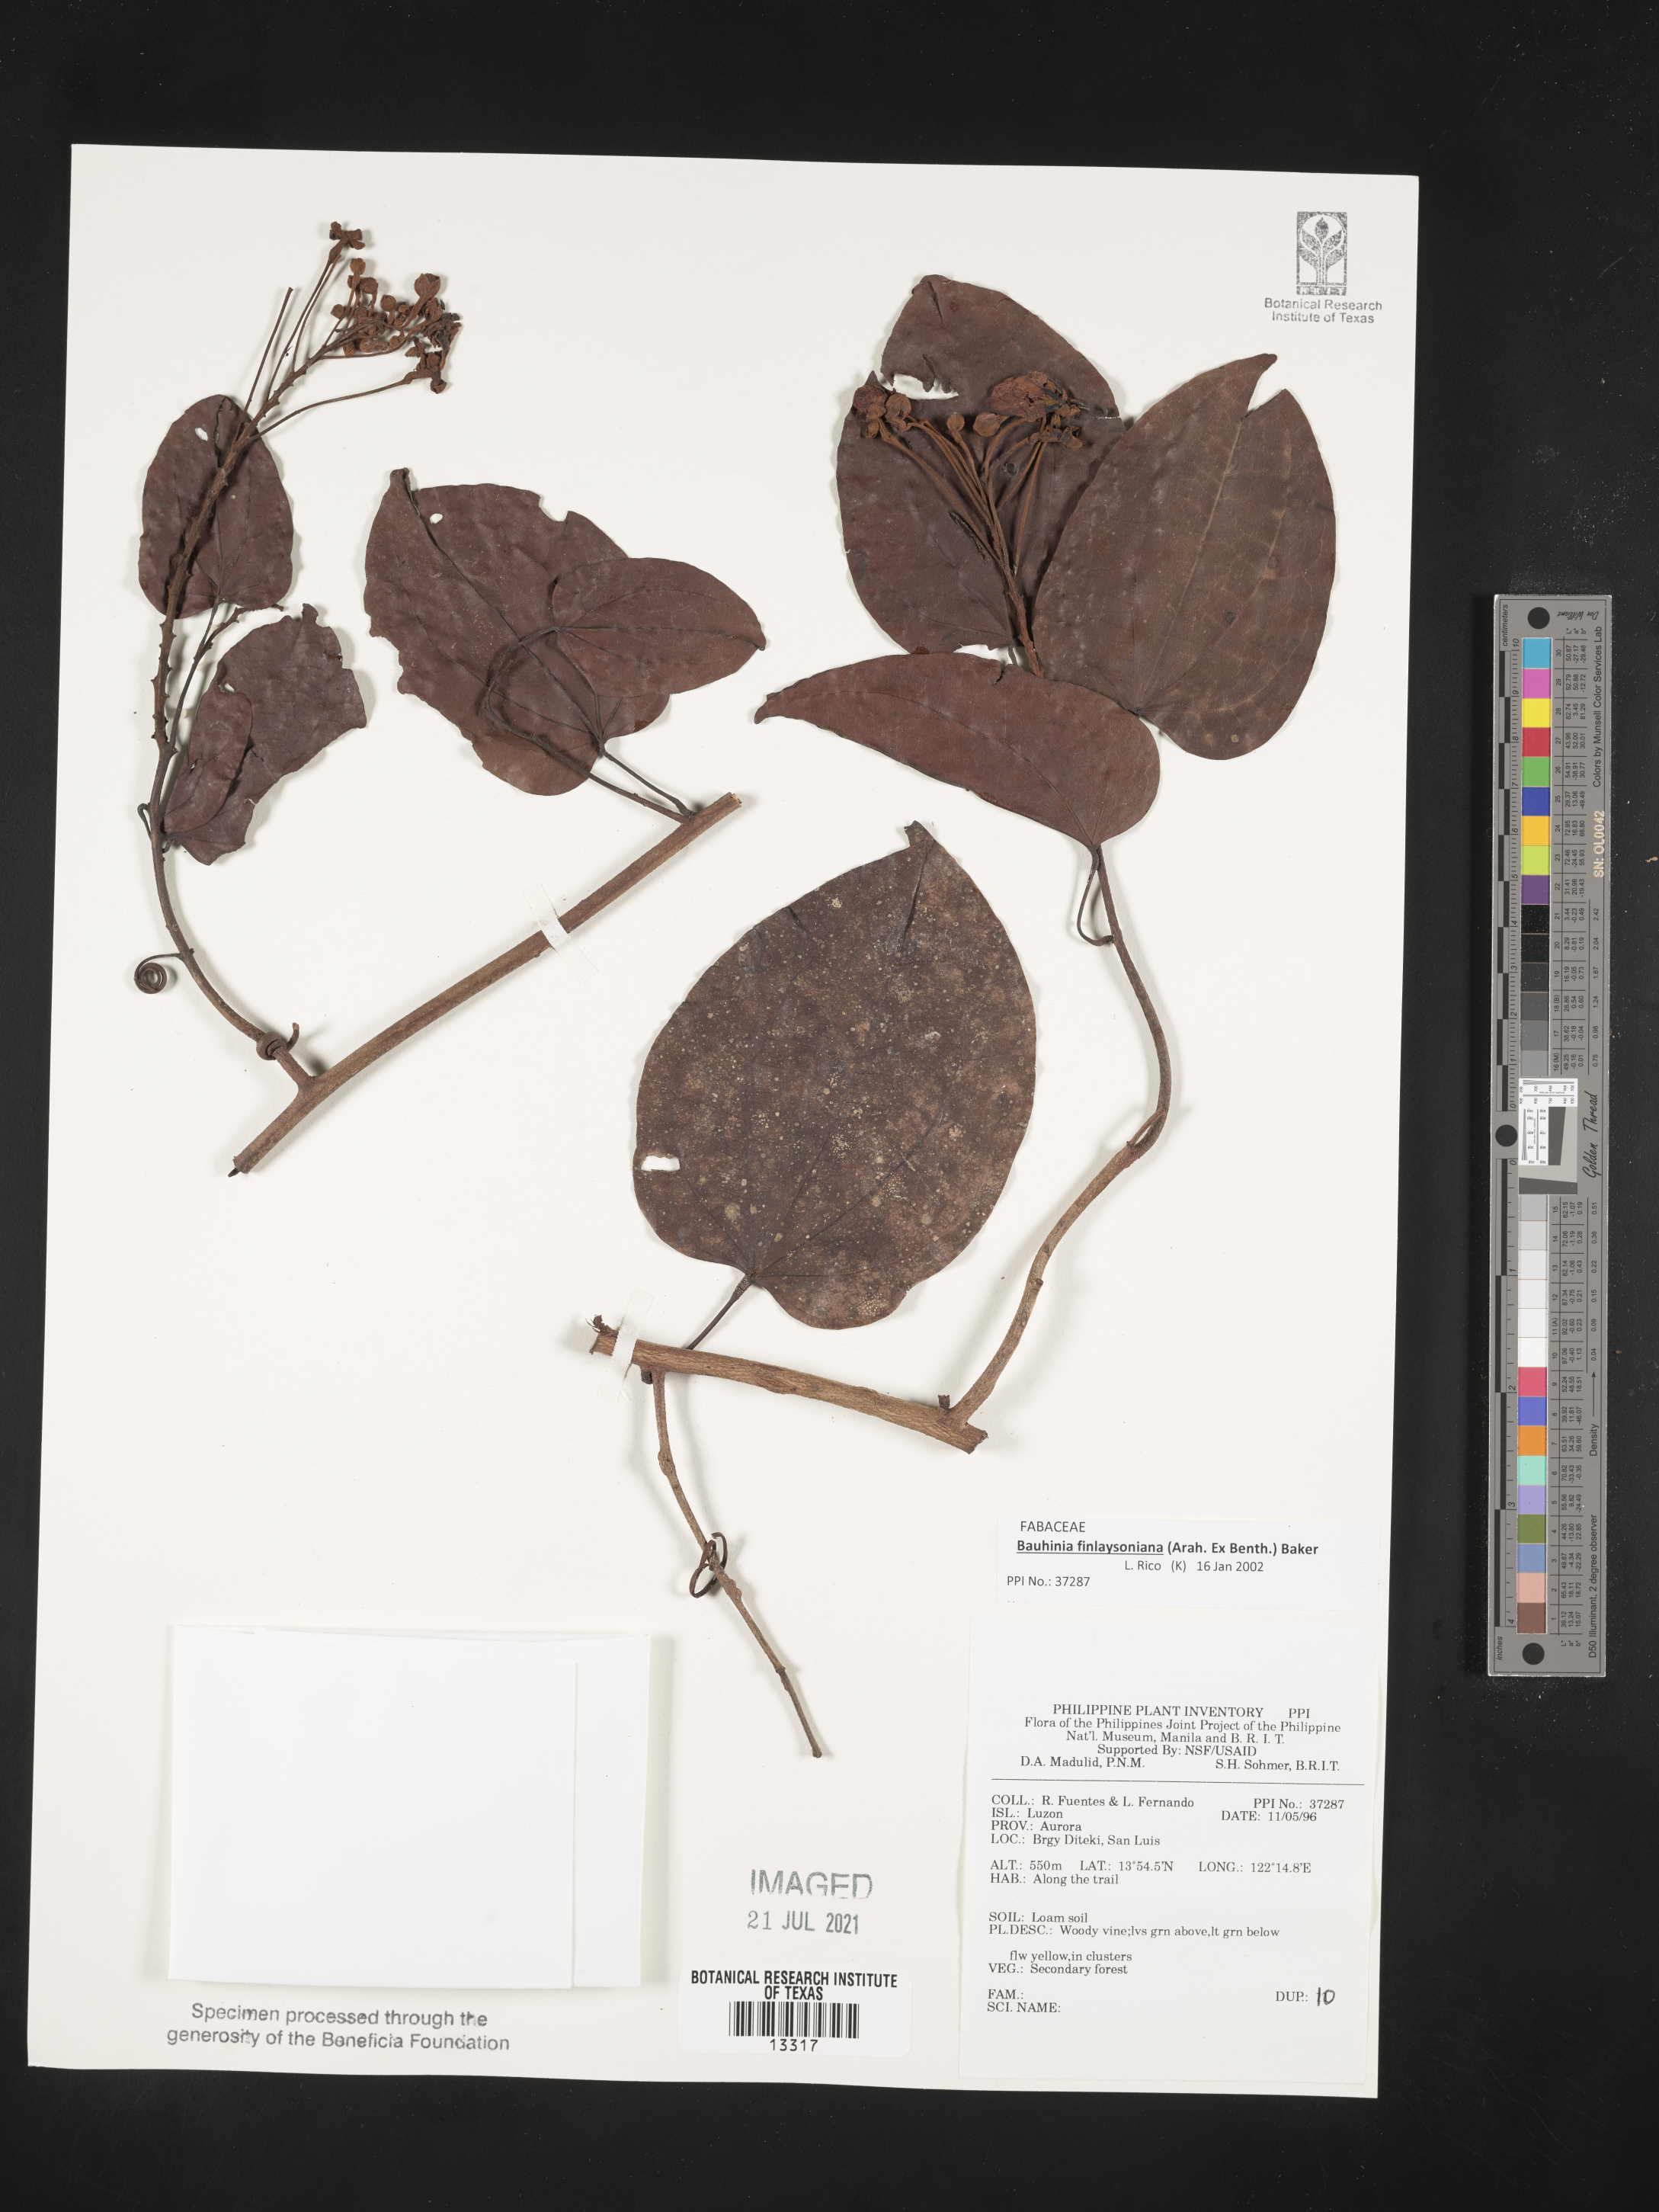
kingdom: Plantae
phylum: Tracheophyta
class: Magnoliopsida
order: Fabales
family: Fabaceae
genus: Phanera
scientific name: Phanera finlaysoniana
